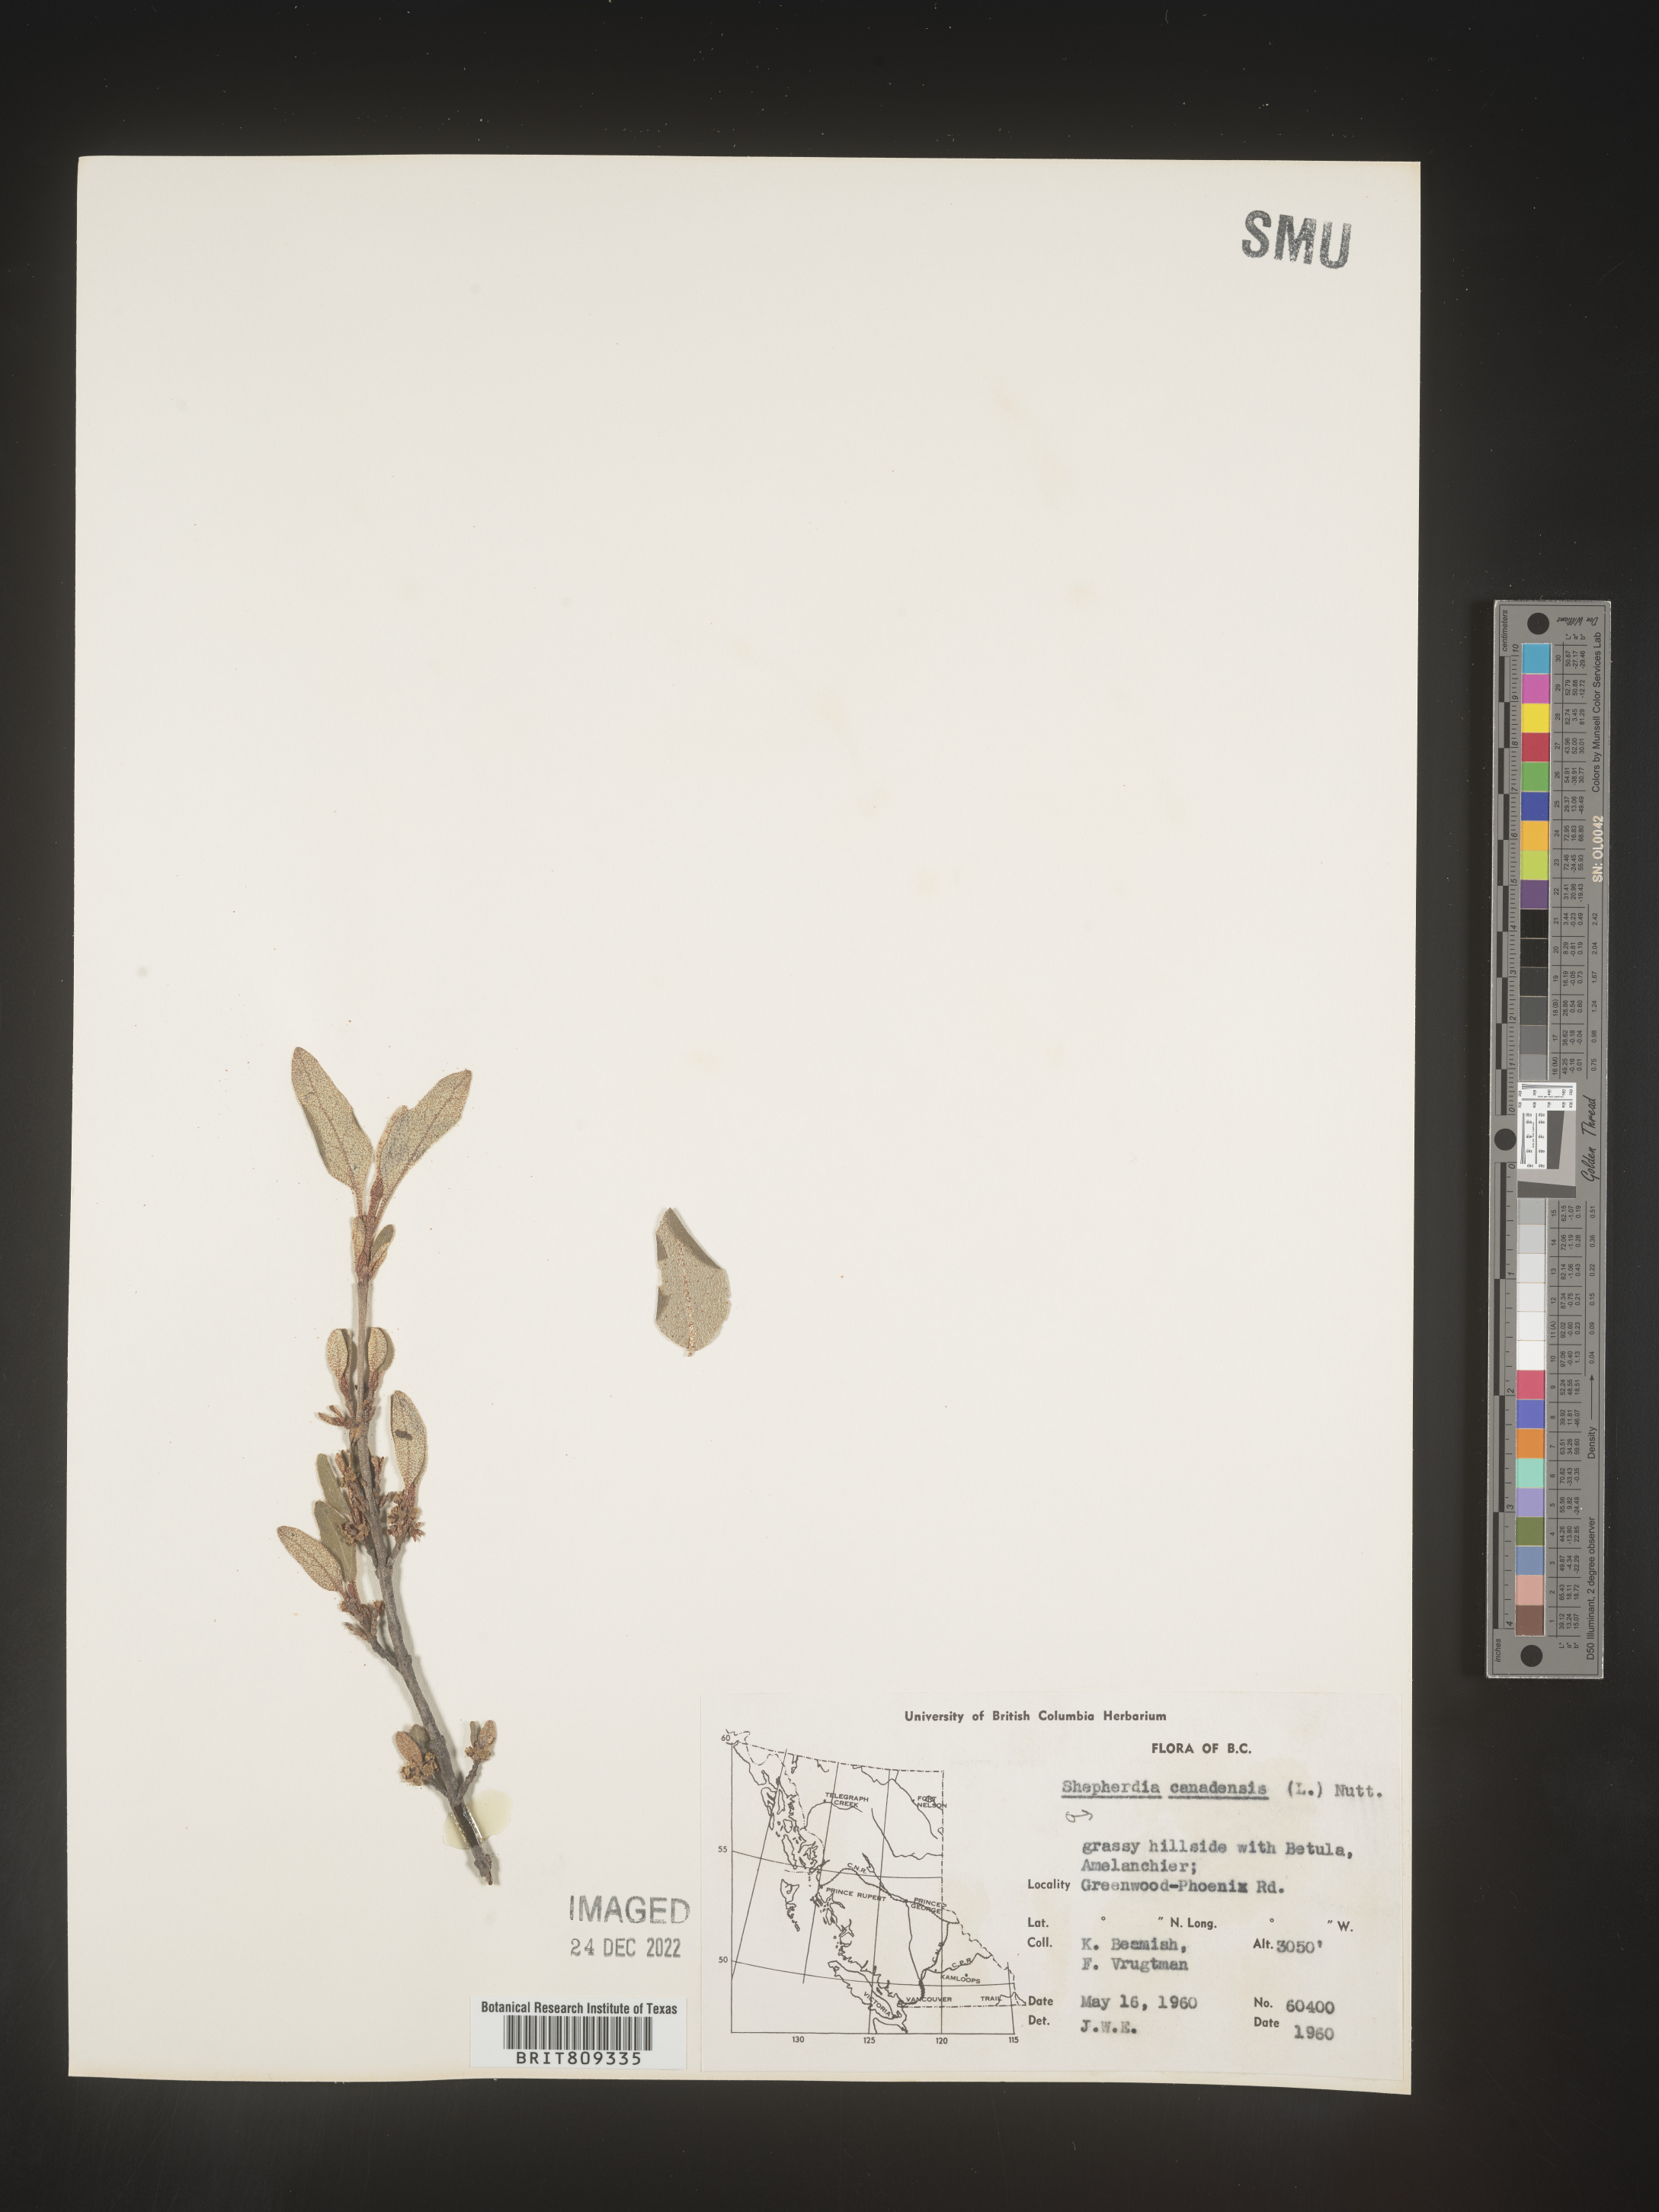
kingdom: Plantae
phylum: Tracheophyta
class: Magnoliopsida
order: Rosales
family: Elaeagnaceae
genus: Shepherdia
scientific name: Shepherdia canadensis
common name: Soapberry
